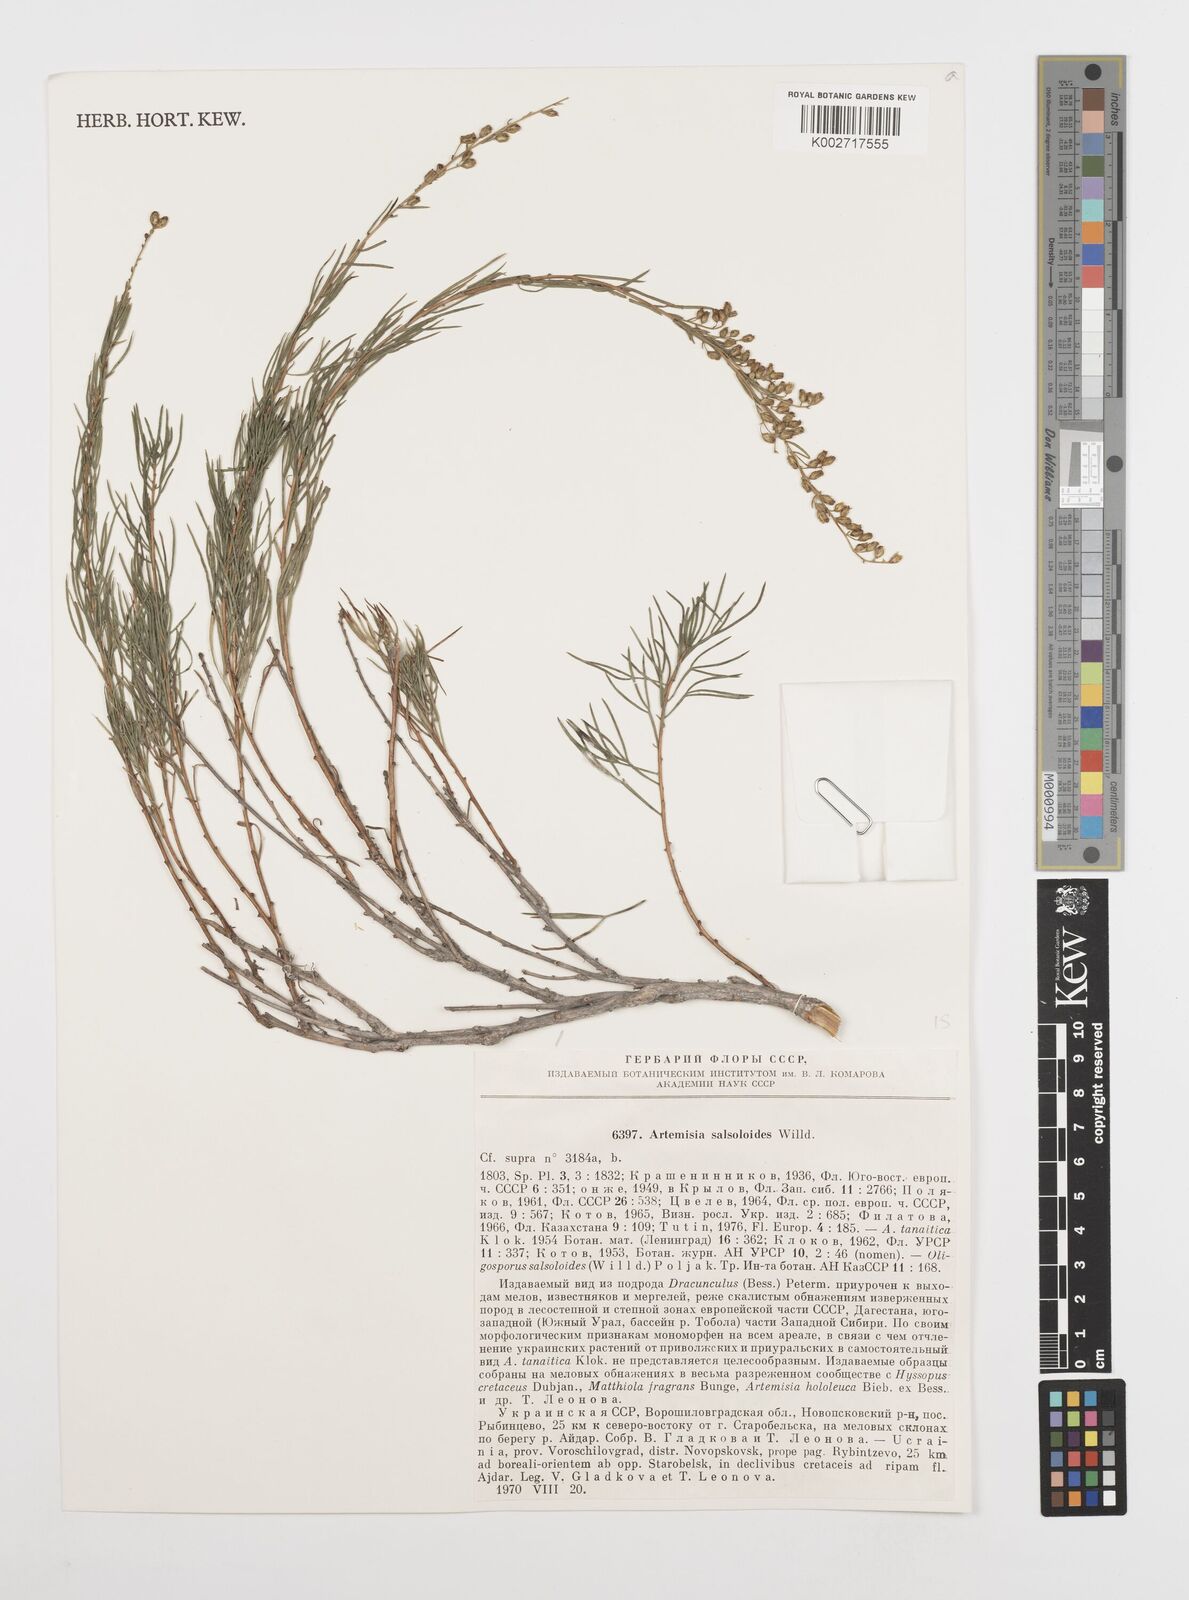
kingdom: Plantae
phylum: Tracheophyta
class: Magnoliopsida
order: Asterales
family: Asteraceae
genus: Artemisia
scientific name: Artemisia salsoloides
